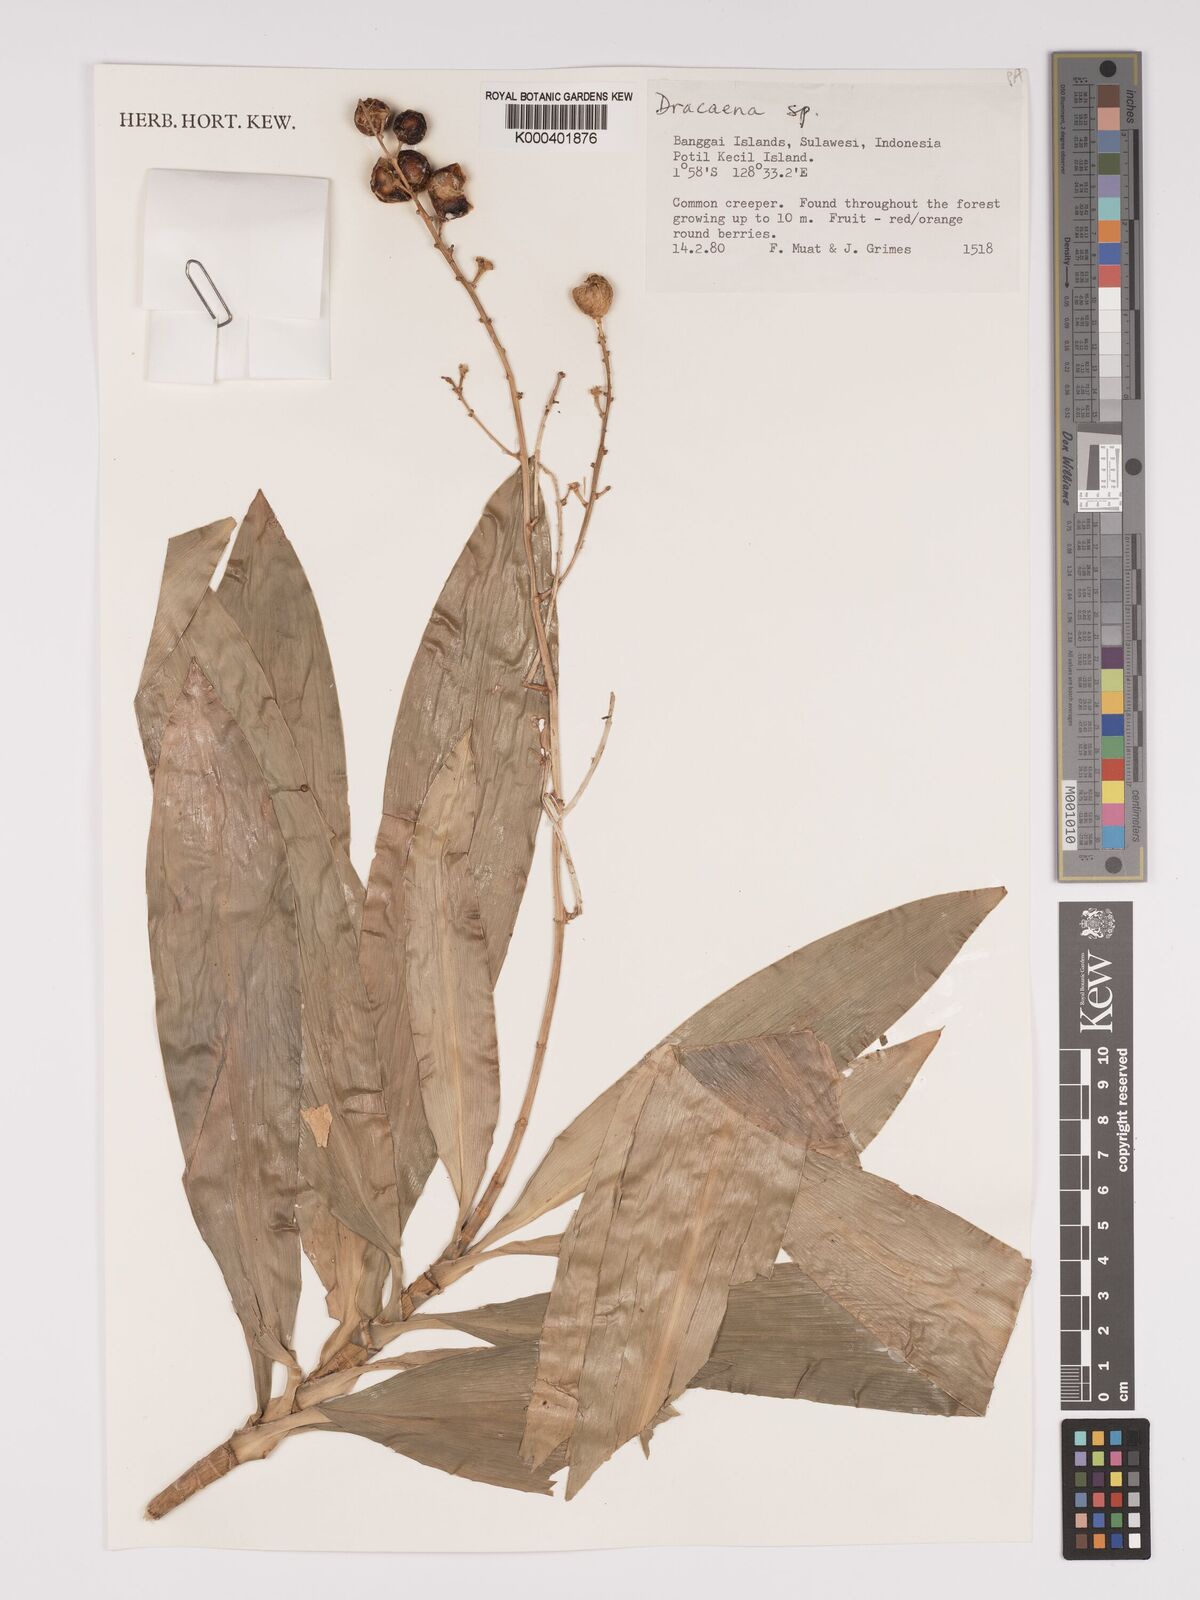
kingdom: Plantae
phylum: Tracheophyta
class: Liliopsida
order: Asparagales
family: Asparagaceae
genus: Dracaena
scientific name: Dracaena
